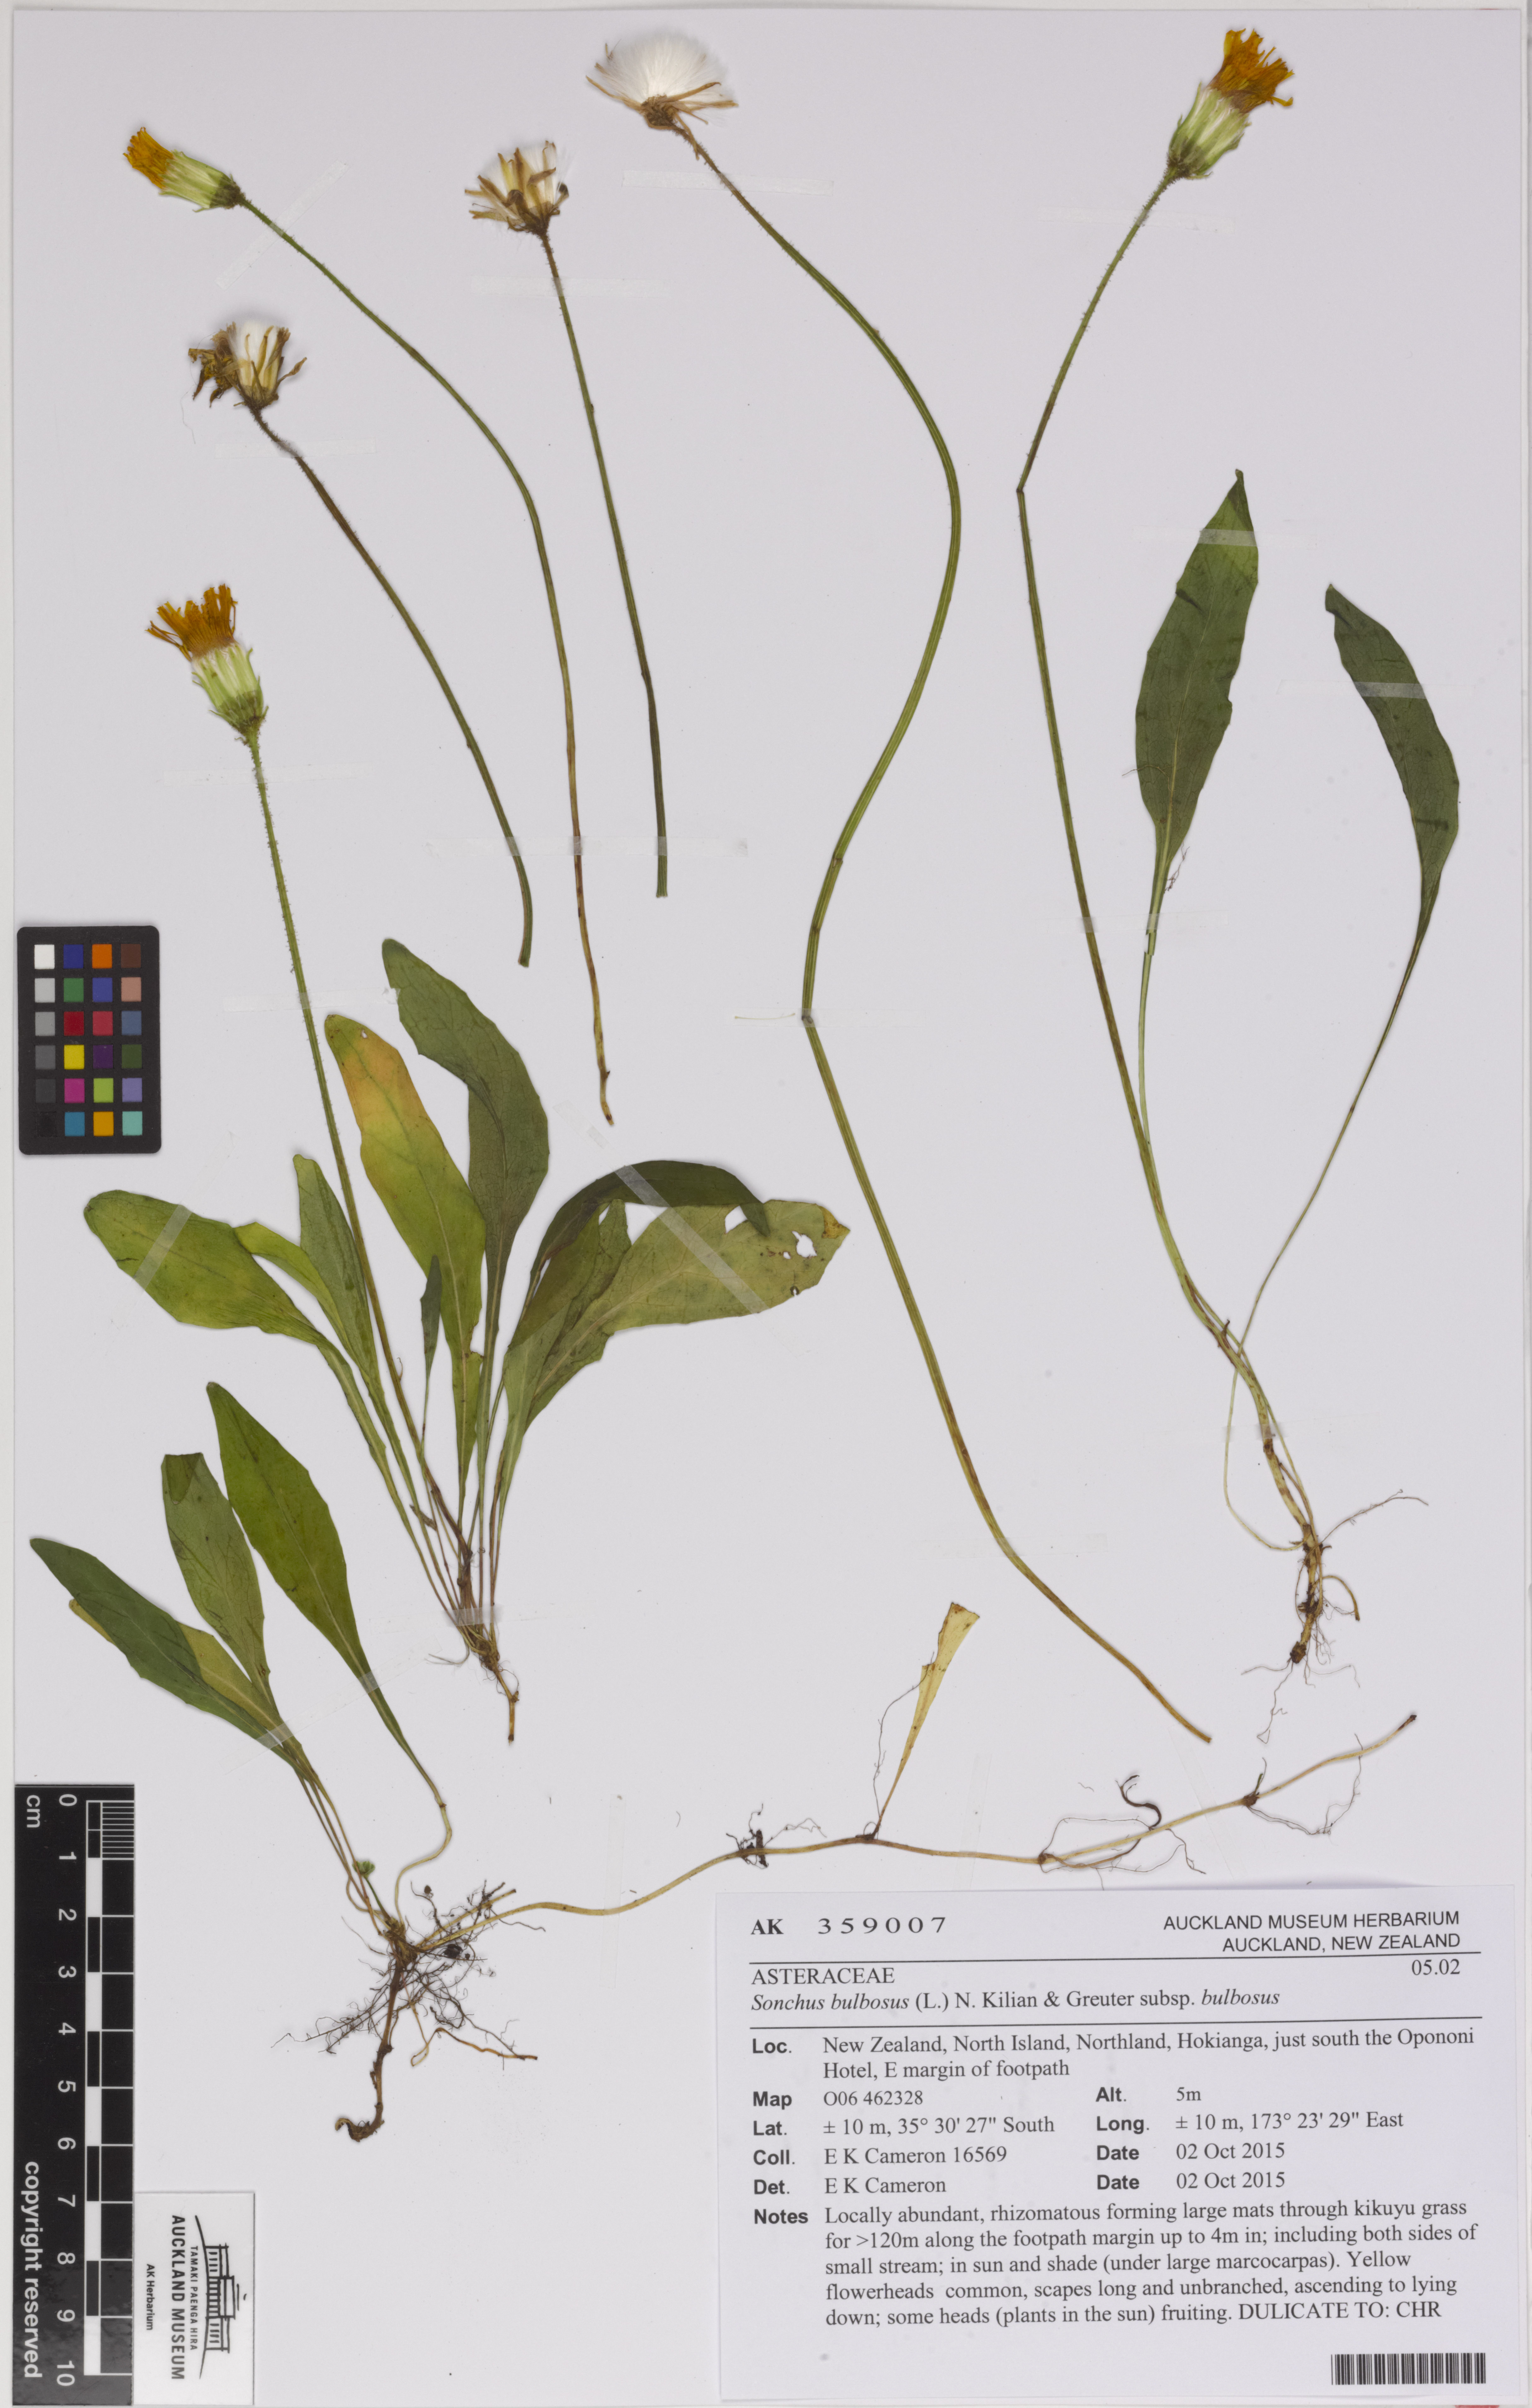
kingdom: Plantae
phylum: Tracheophyta
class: Magnoliopsida
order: Asterales
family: Asteraceae
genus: Aetheorhiza
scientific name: Aetheorhiza bulbosa
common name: Tuberous hawk's-beard
